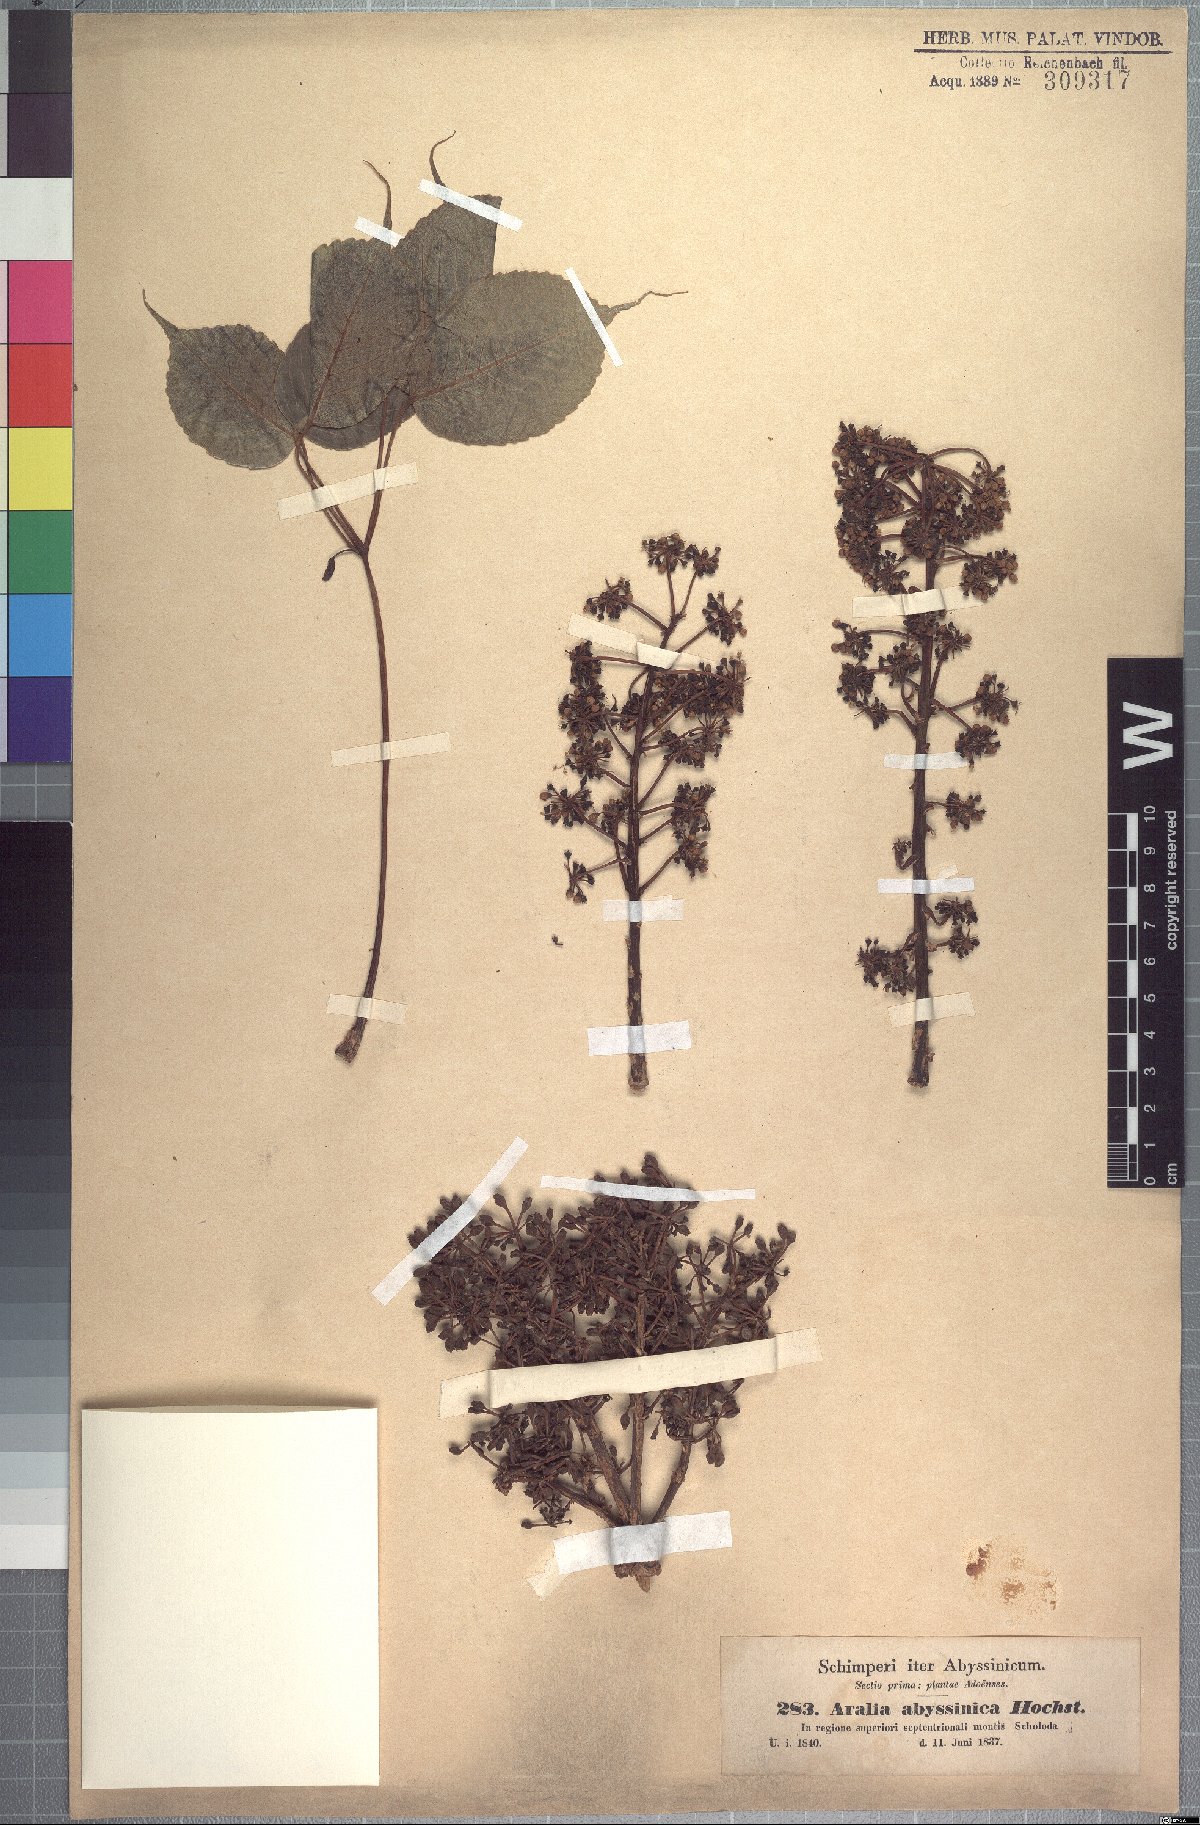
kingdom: Plantae
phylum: Tracheophyta
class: Magnoliopsida
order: Apiales
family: Araliaceae
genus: Astropanax
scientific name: Astropanax abyssinicum
